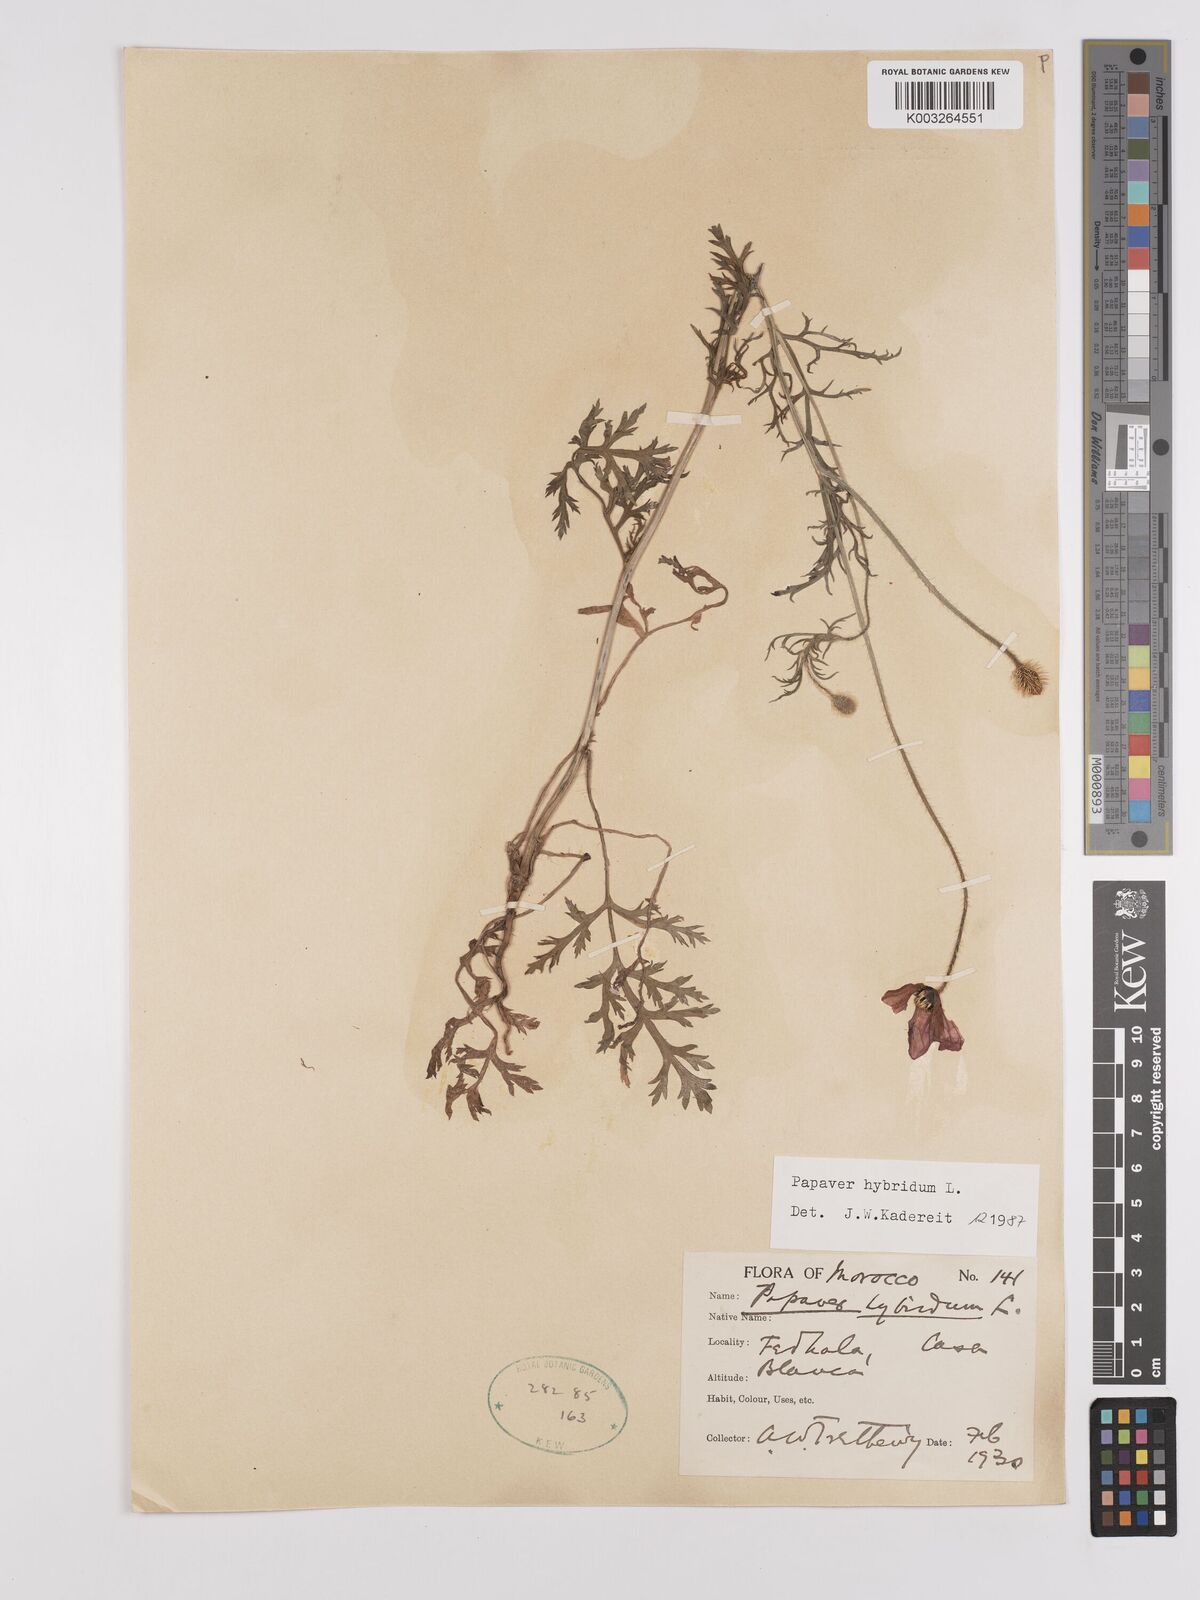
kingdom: Plantae
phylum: Tracheophyta
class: Magnoliopsida
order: Ranunculales
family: Papaveraceae
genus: Papaver
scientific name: Papaver
